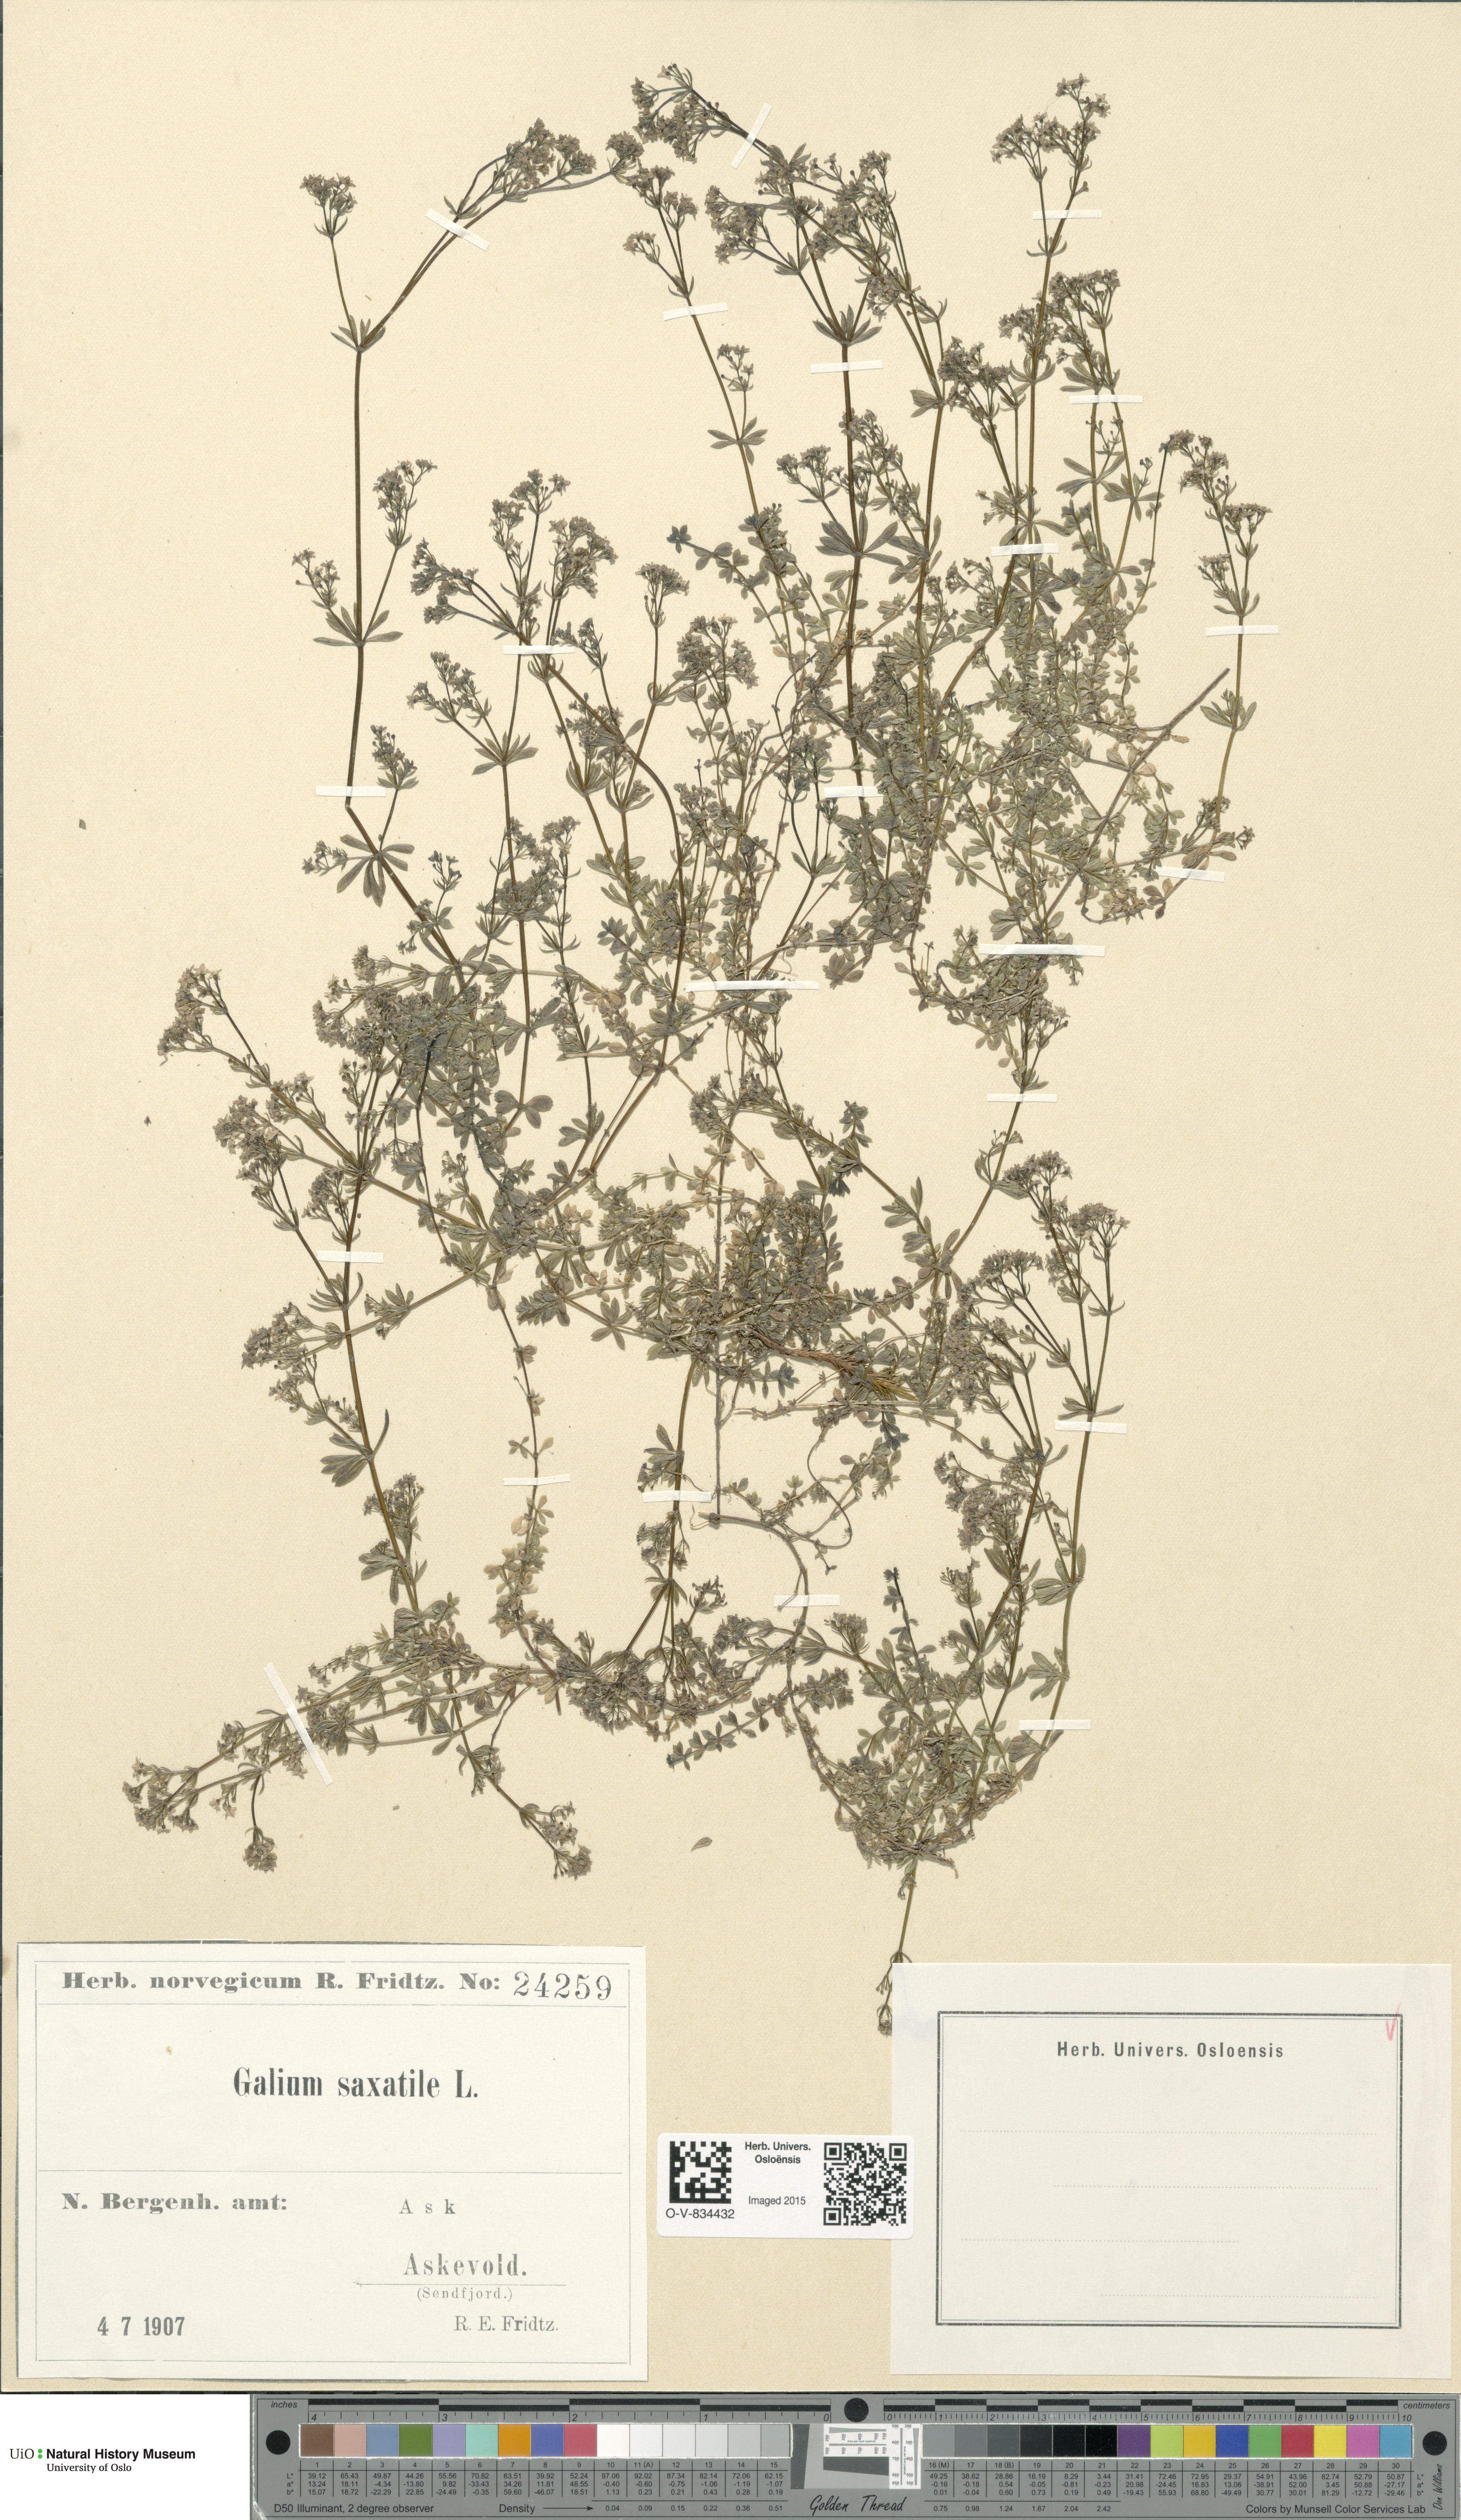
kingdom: Plantae
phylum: Tracheophyta
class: Magnoliopsida
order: Gentianales
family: Rubiaceae
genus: Galium
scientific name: Galium saxatile
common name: Heath bedstraw
